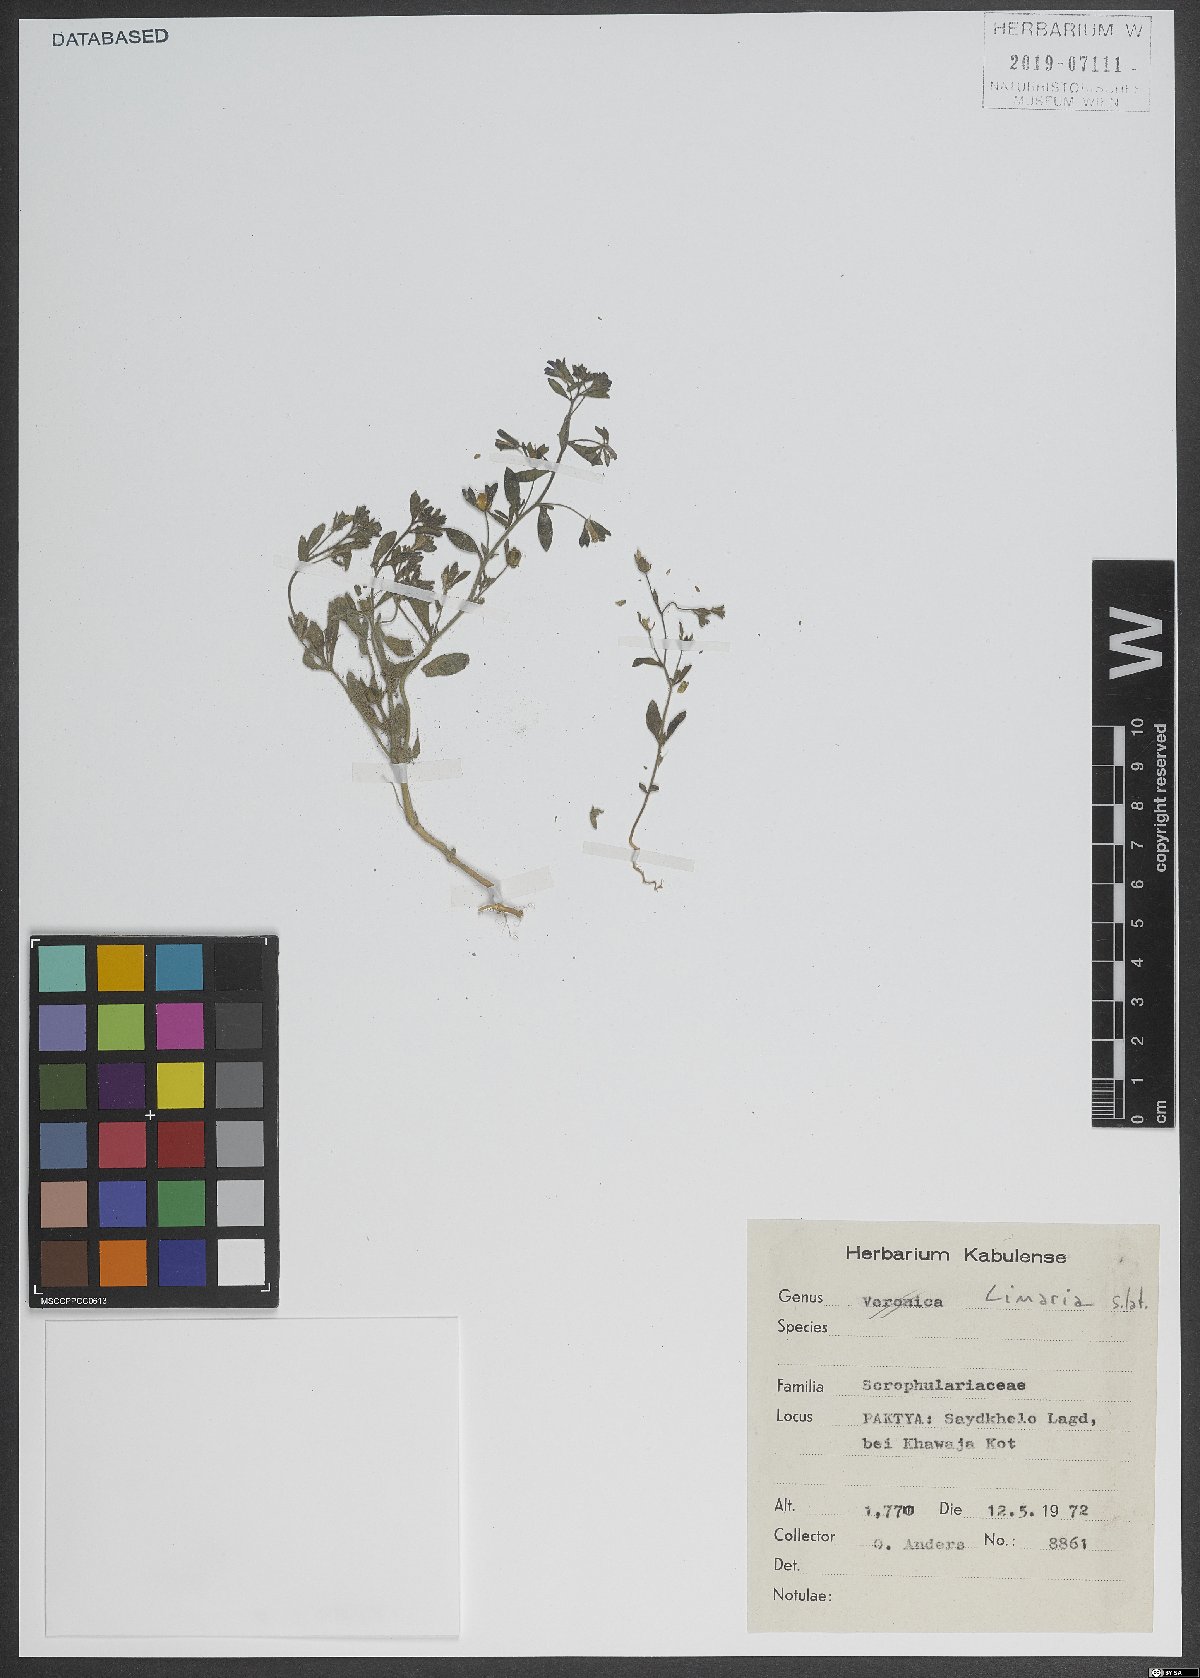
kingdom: Plantae
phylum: Tracheophyta
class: Magnoliopsida
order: Lamiales
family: Plantaginaceae
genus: Linaria
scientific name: Linaria
